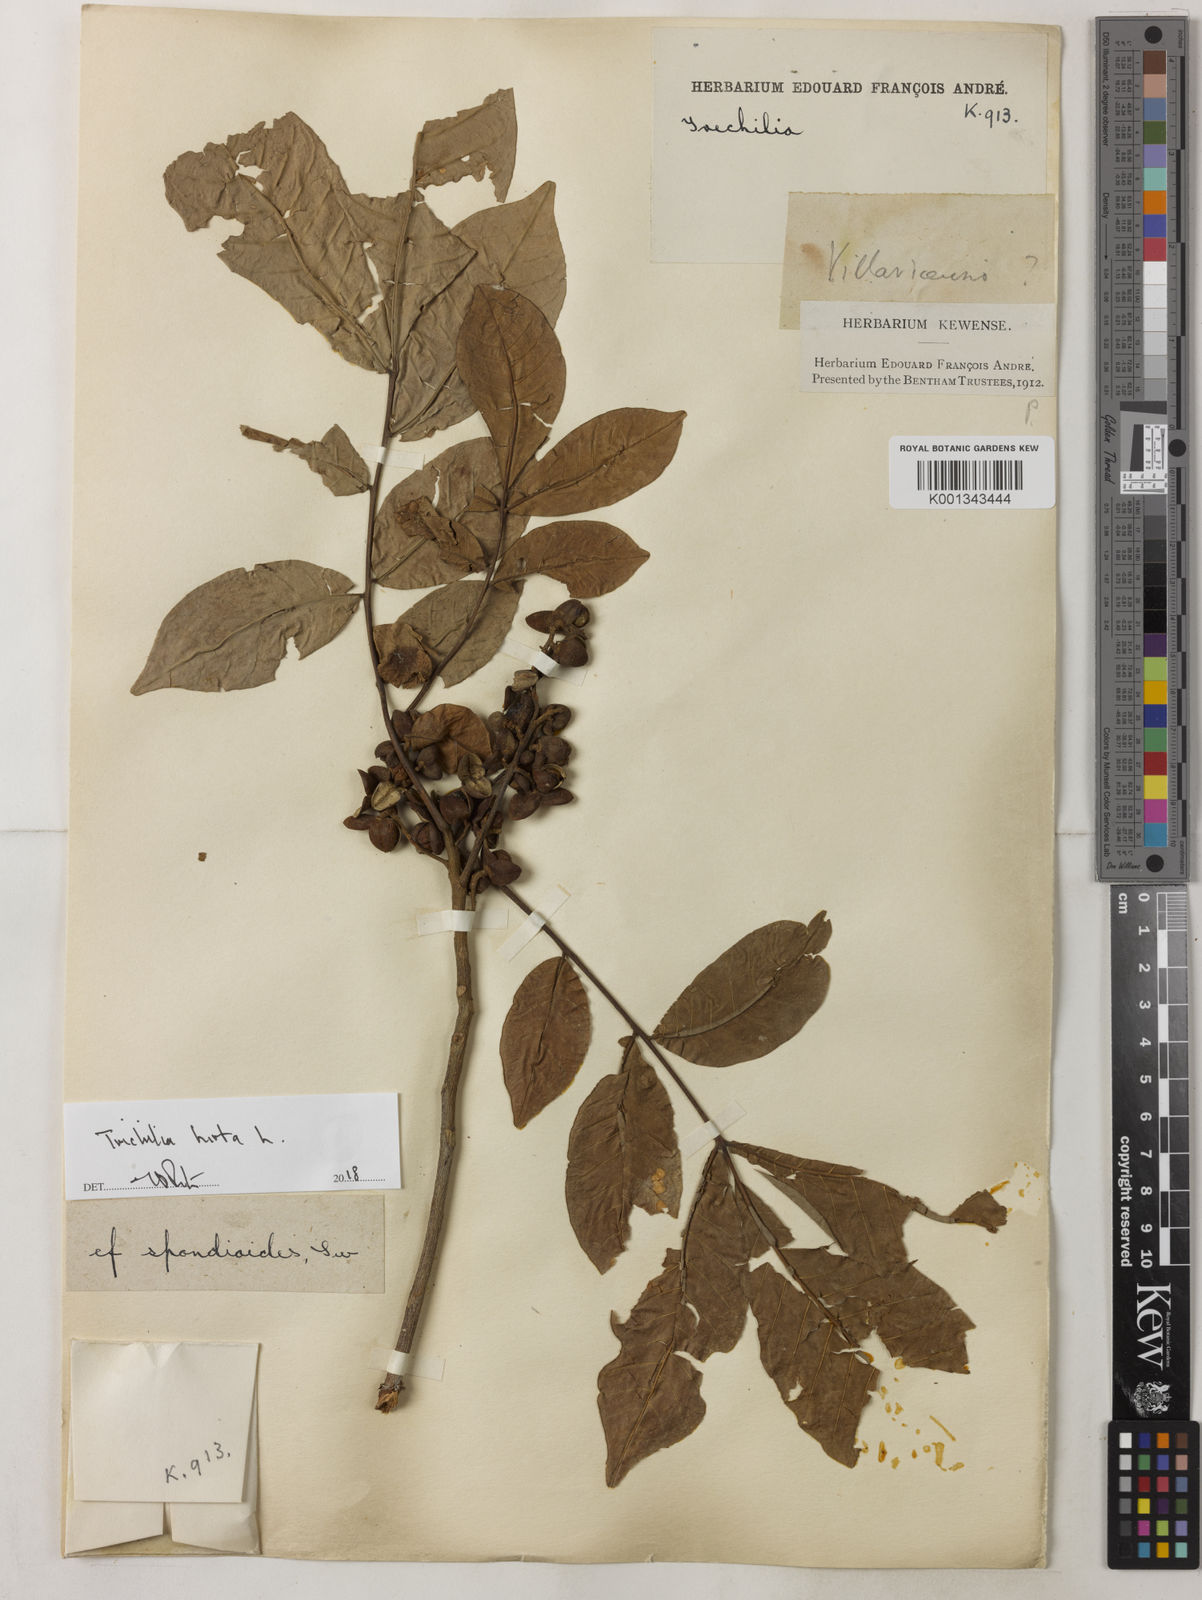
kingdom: Plantae
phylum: Tracheophyta
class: Magnoliopsida
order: Sapindales
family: Meliaceae
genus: Trichilia
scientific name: Trichilia hirta
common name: Red-cedar
